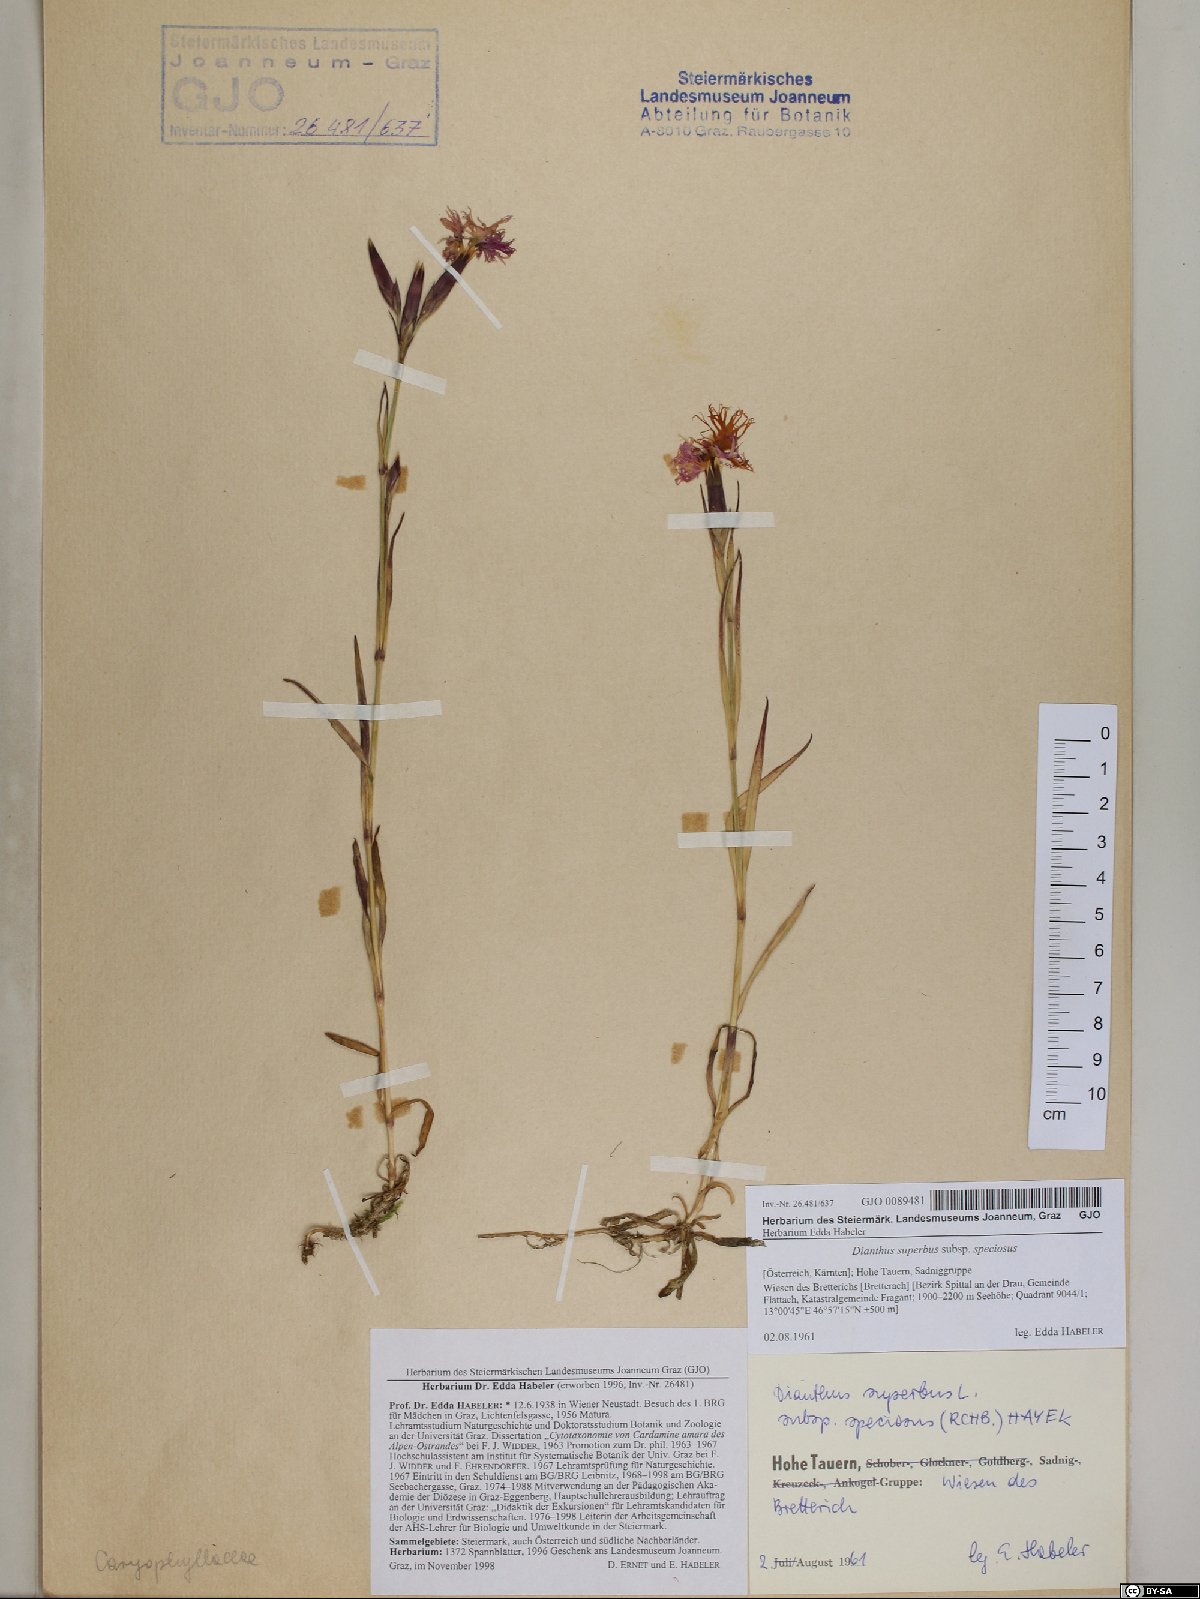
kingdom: Plantae
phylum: Tracheophyta
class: Magnoliopsida
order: Caryophyllales
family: Caryophyllaceae
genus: Dianthus
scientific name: Dianthus superbus
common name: Fringed pink
